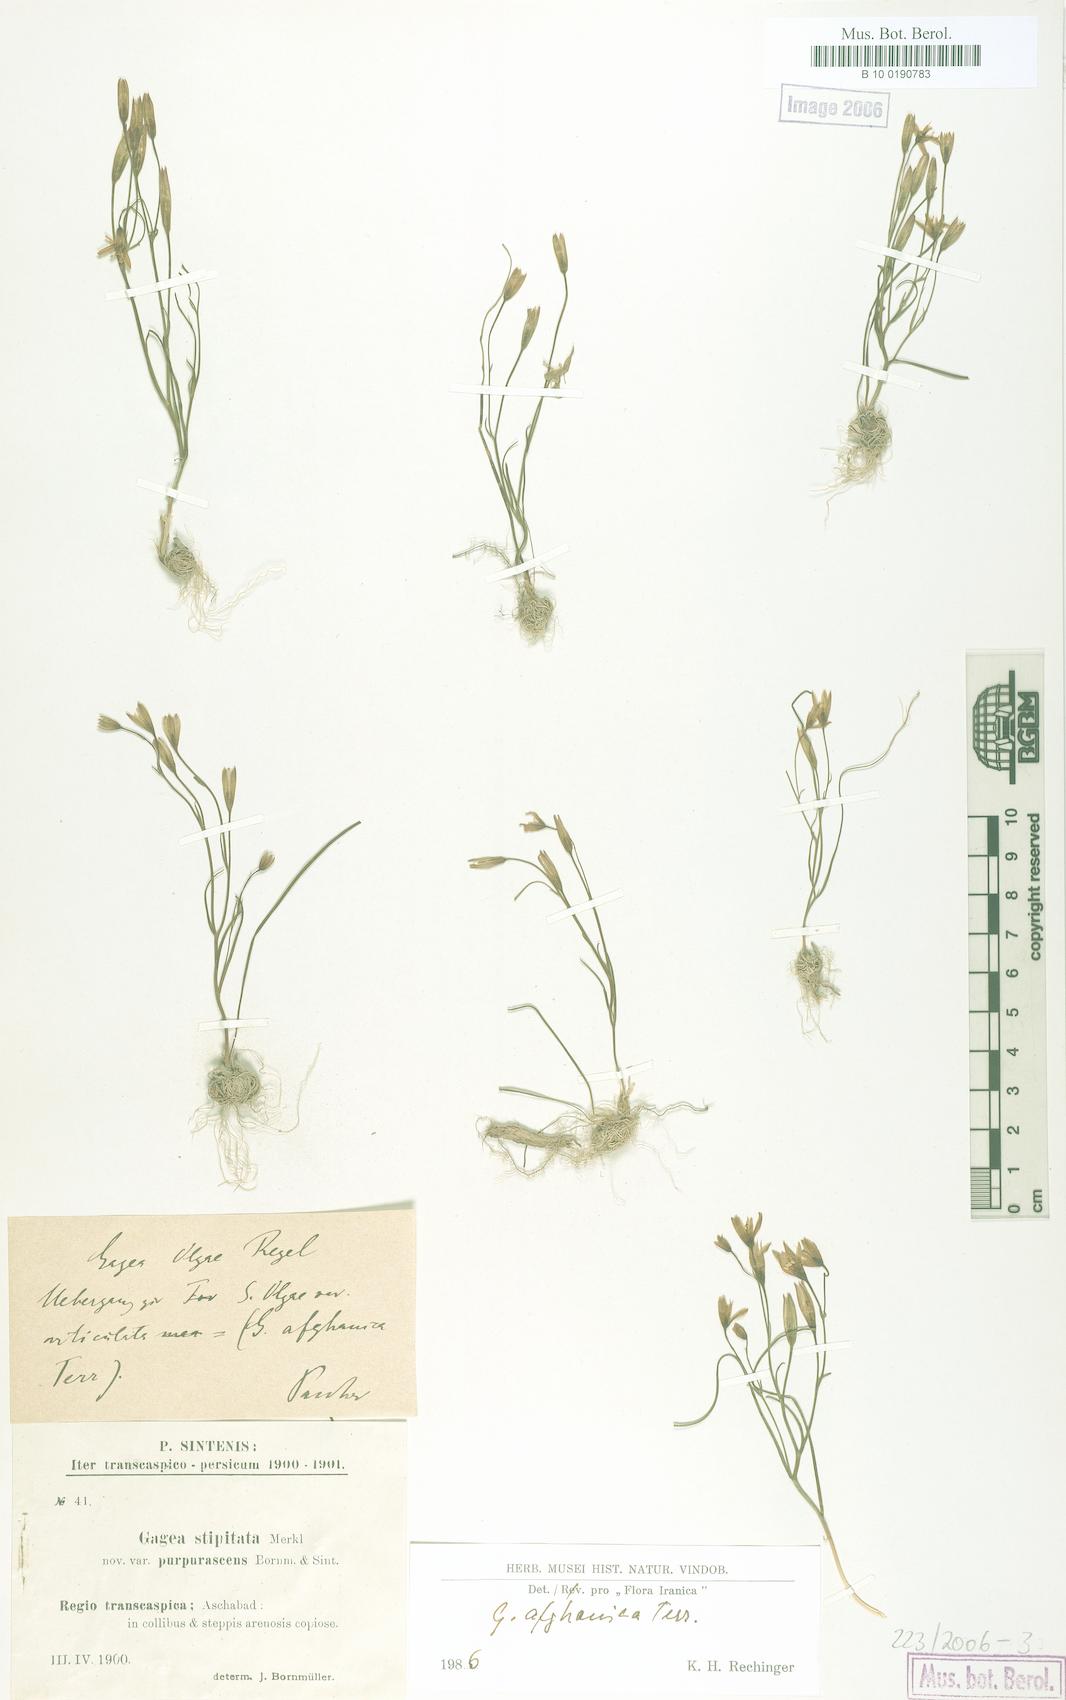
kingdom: Plantae
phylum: Tracheophyta
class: Liliopsida
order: Liliales
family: Liliaceae
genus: Gagea
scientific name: Gagea afghanica
